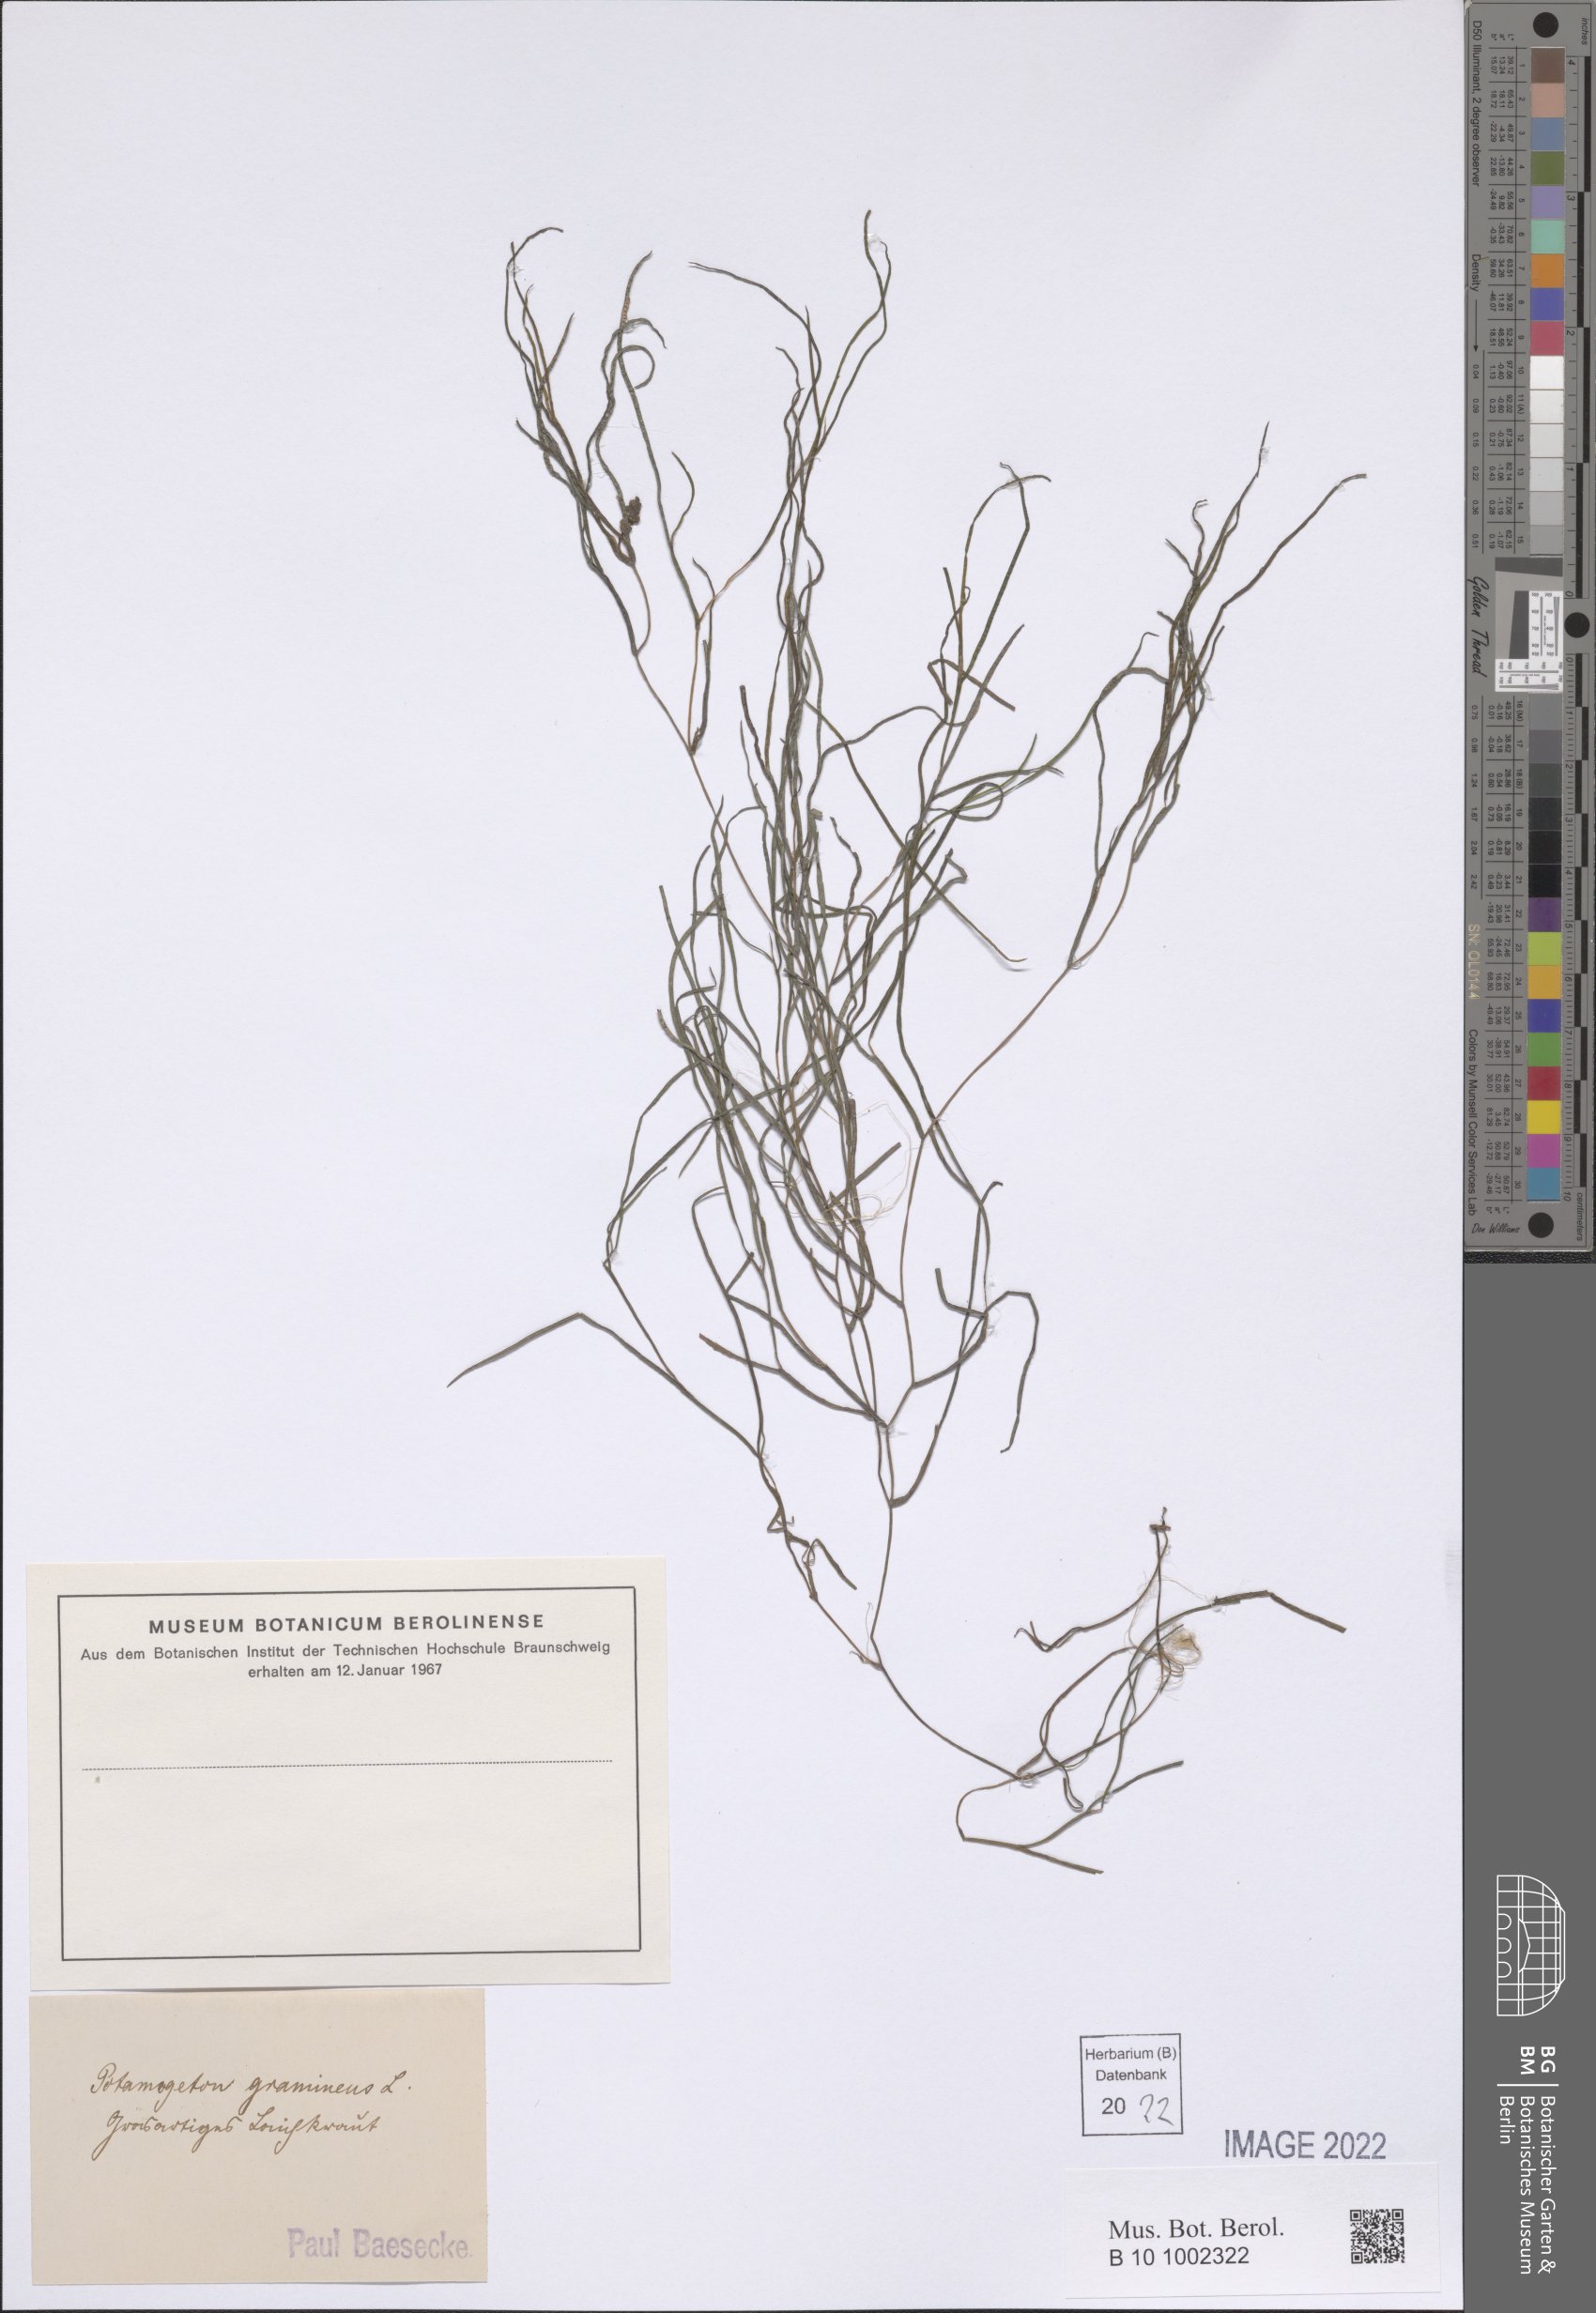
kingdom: Plantae
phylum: Tracheophyta
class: Liliopsida
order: Alismatales
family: Potamogetonaceae
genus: Potamogeton
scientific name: Potamogeton gramineus
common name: Various-leaved pondweed
